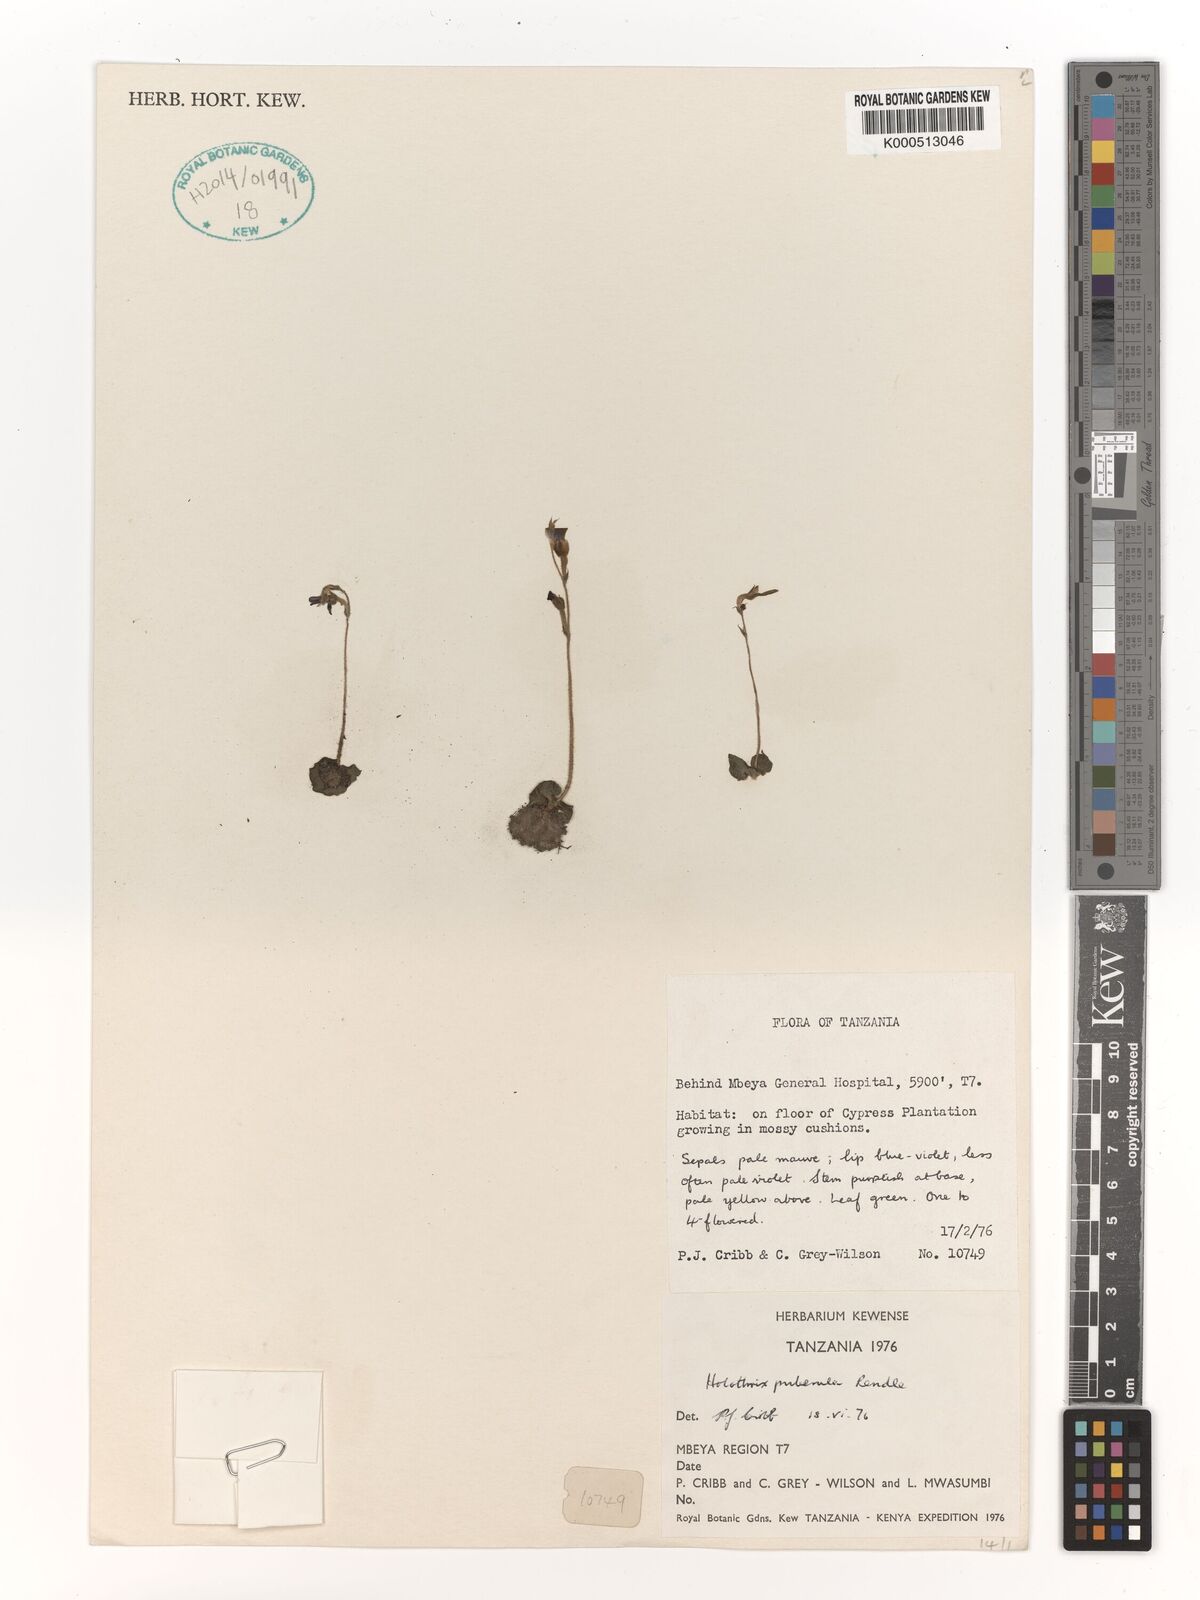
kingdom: Plantae
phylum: Tracheophyta
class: Liliopsida
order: Asparagales
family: Orchidaceae
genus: Holothrix
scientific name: Holothrix brongniartiana
